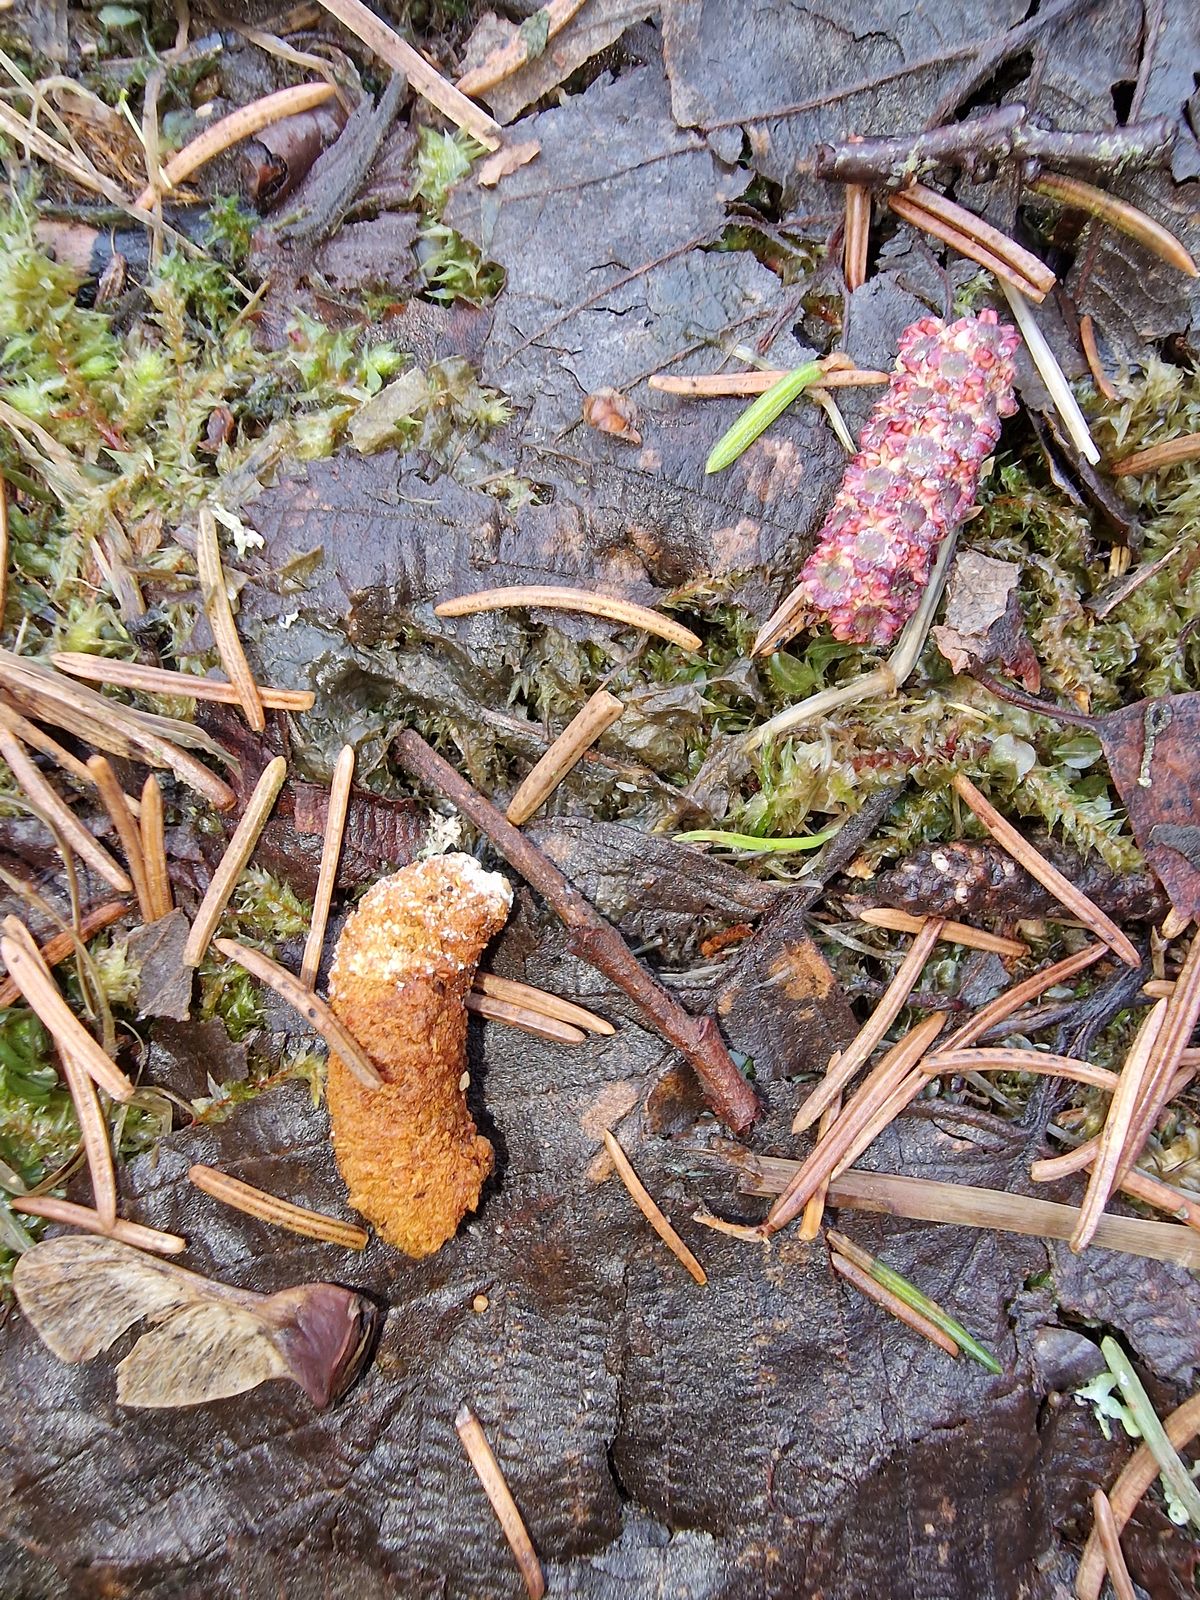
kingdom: Animalia
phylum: Chordata
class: Aves
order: Galliformes
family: Phasianidae
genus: Lyrurus
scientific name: Lyrurus tetrix
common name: Black grouse
